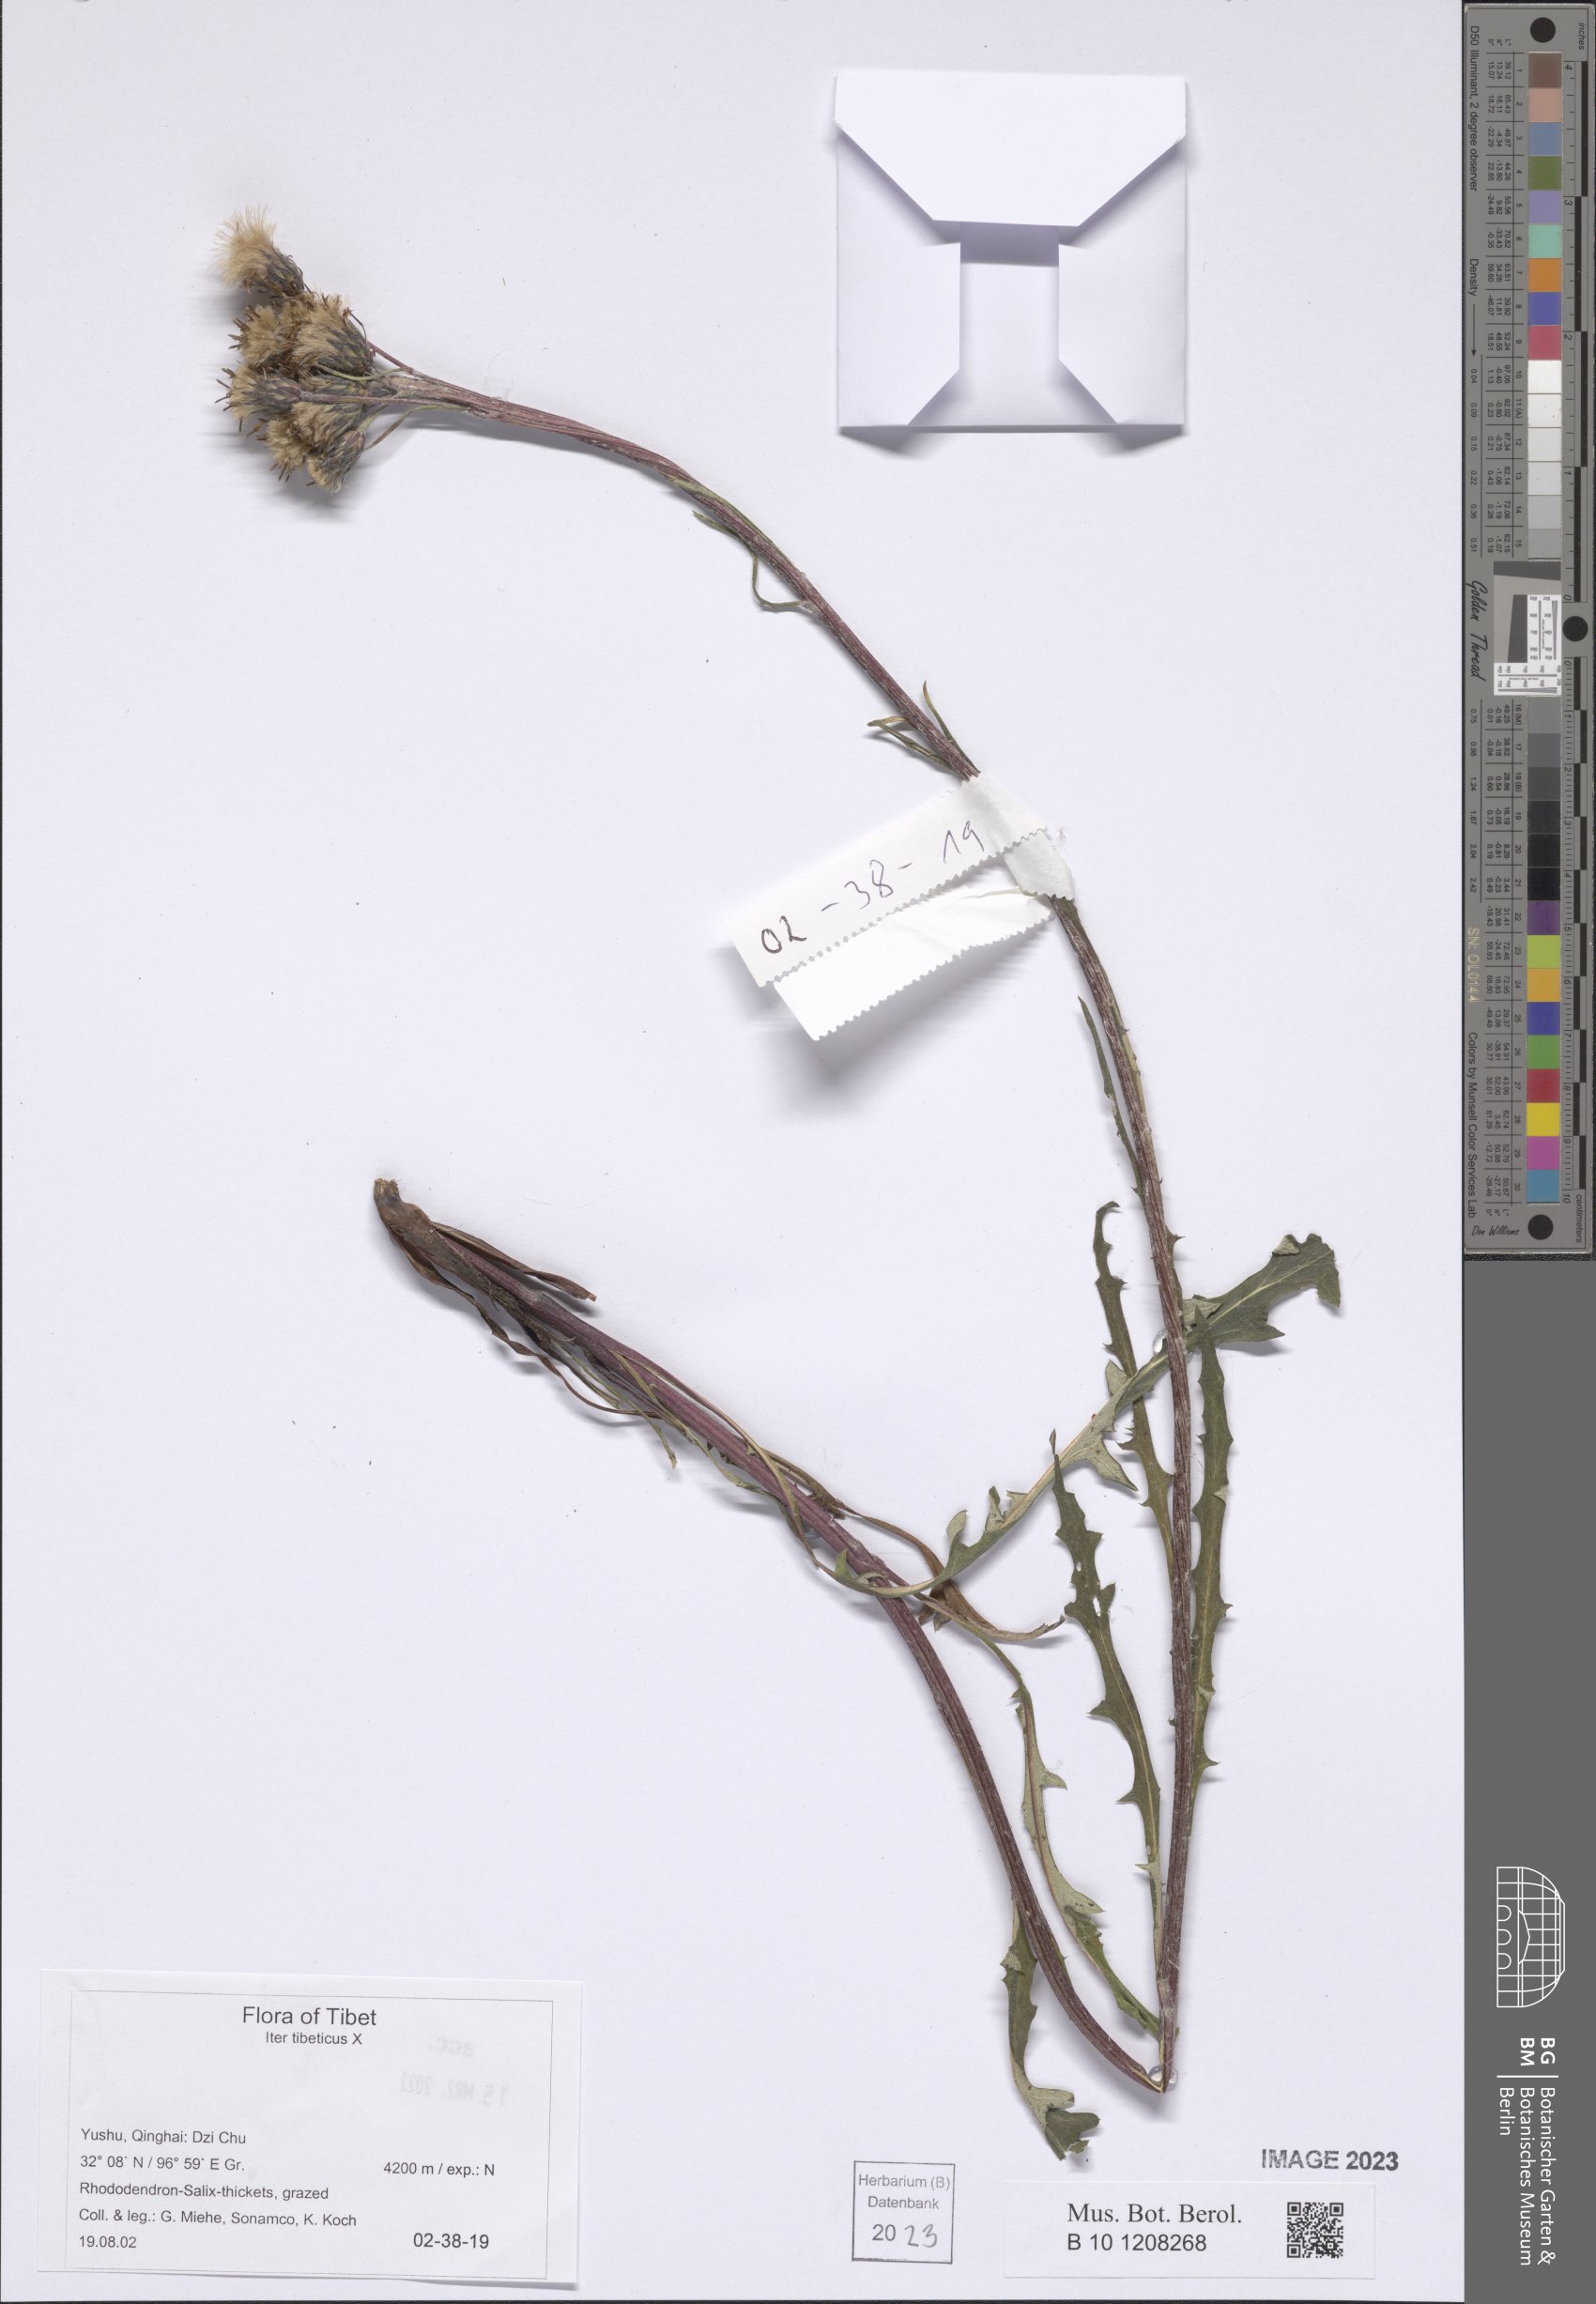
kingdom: Plantae
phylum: Tracheophyta
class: Magnoliopsida
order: Asterales
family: Asteraceae
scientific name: Asteraceae
